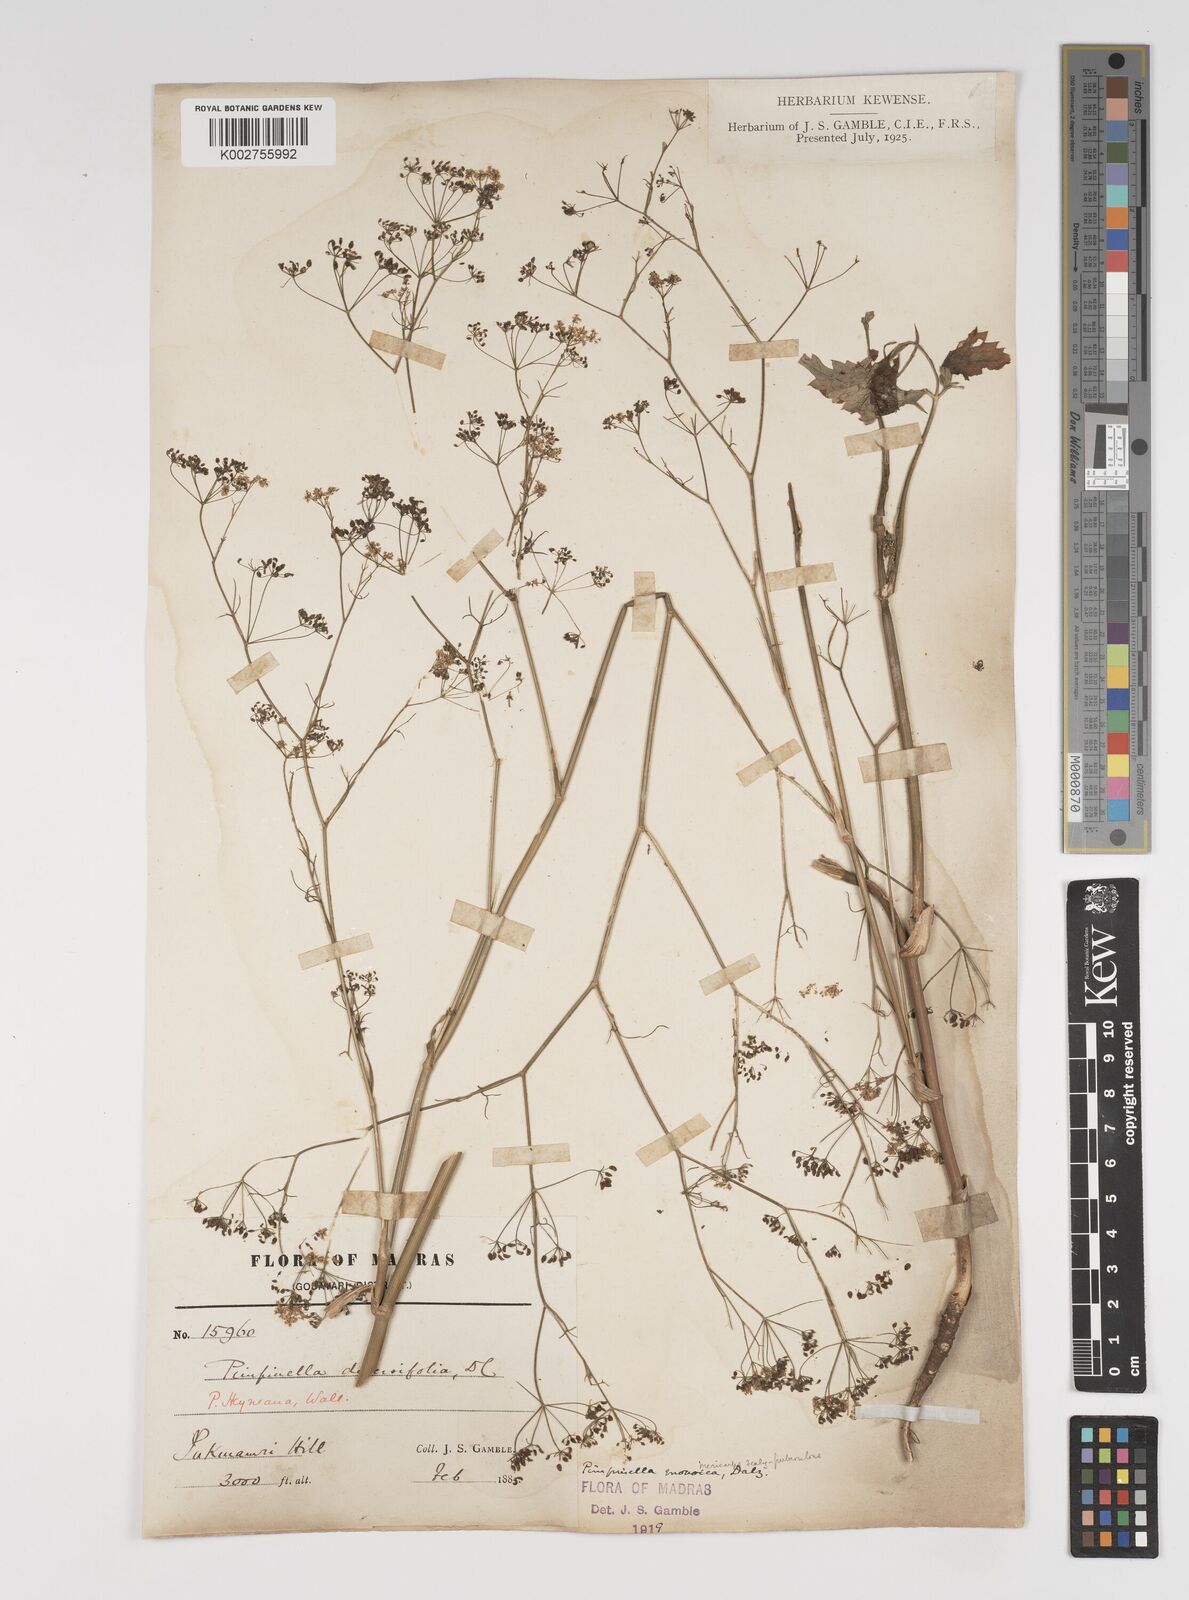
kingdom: Plantae
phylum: Tracheophyta
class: Magnoliopsida
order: Apiales
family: Apiaceae
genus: Pimpinella
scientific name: Pimpinella wallichiana
